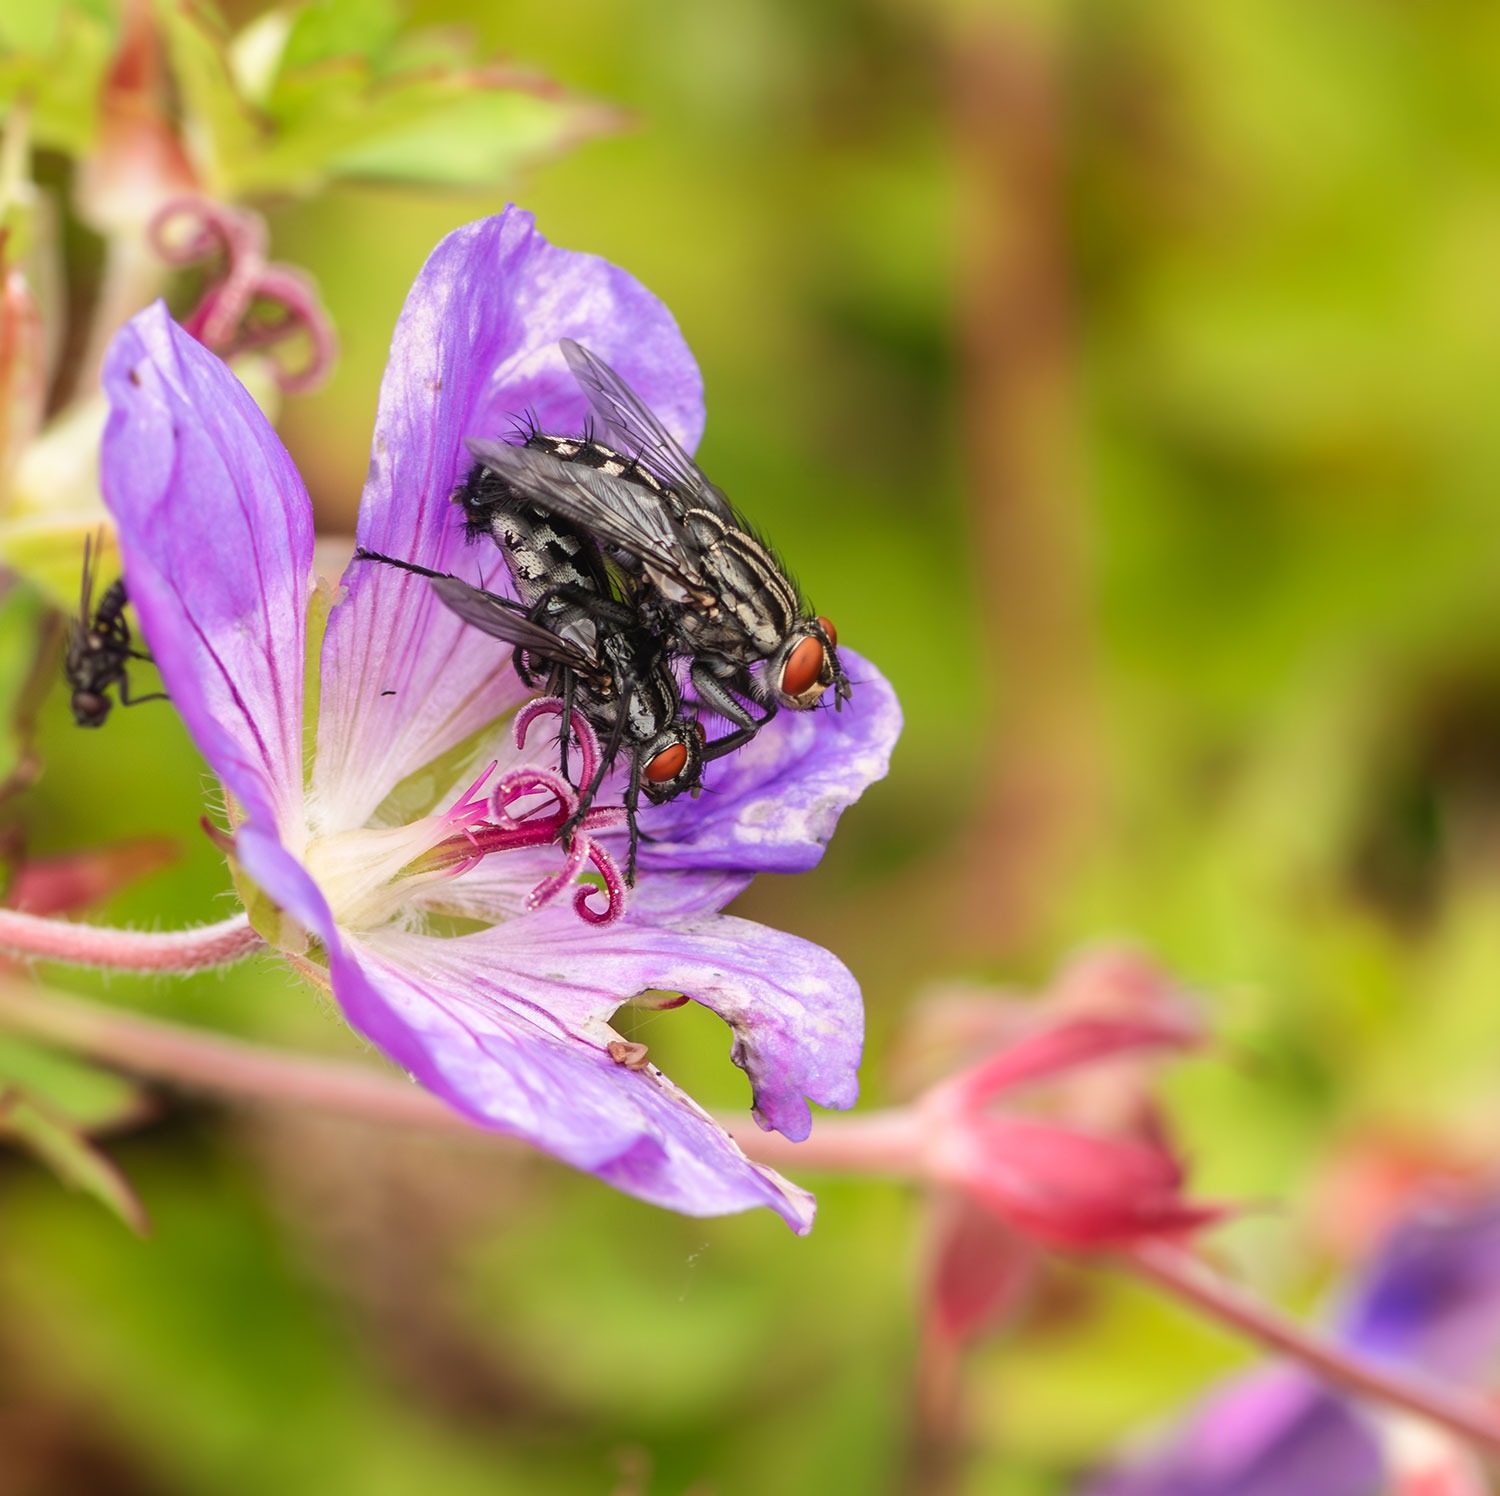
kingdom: Animalia
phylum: Arthropoda
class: Insecta
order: Diptera
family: Sarcophagidae
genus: Sarcophaga
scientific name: Sarcophaga
